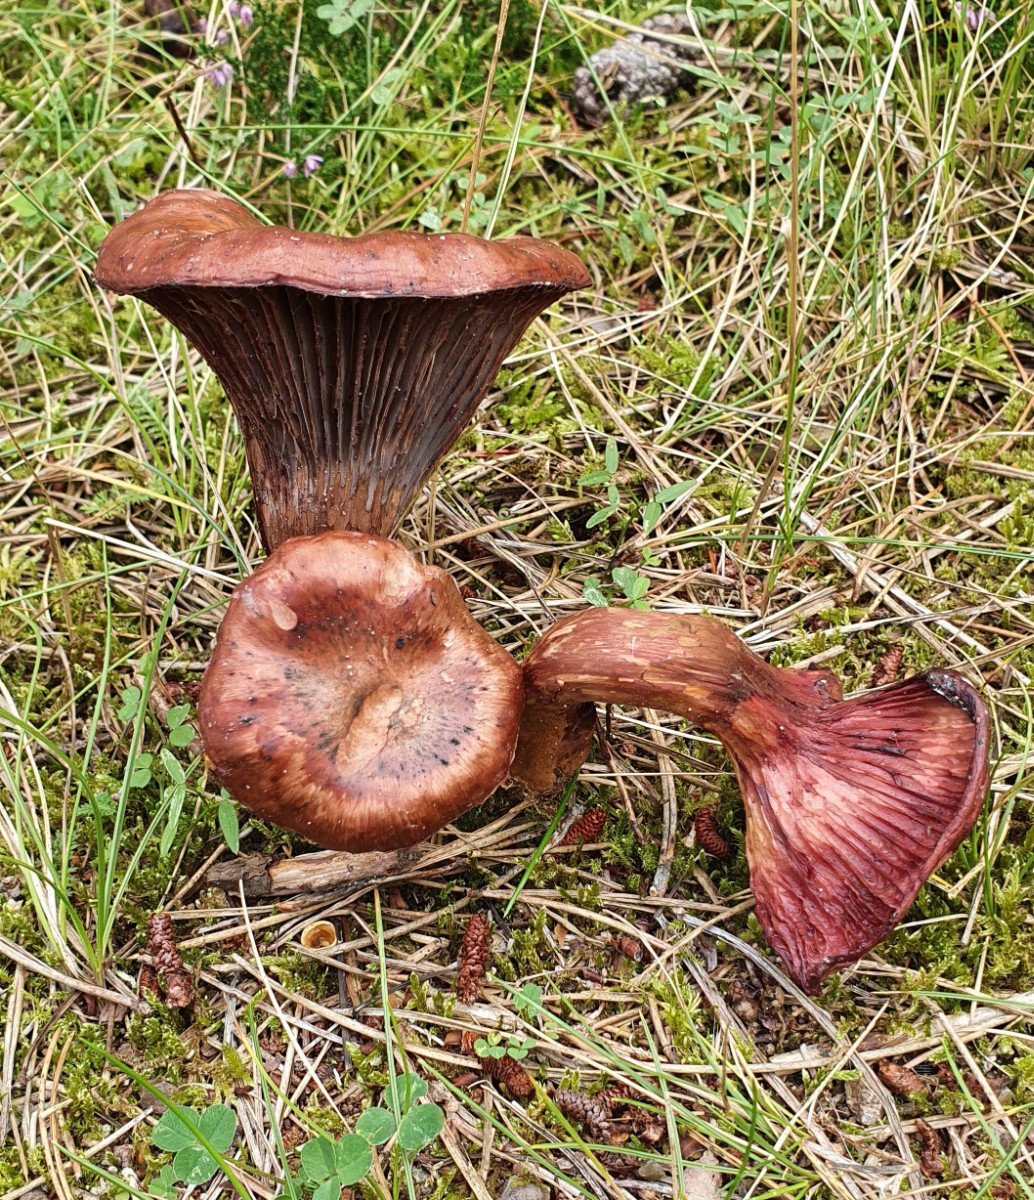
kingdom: Fungi
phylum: Basidiomycota
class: Agaricomycetes
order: Boletales
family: Gomphidiaceae
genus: Chroogomphus
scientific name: Chroogomphus rutilus
